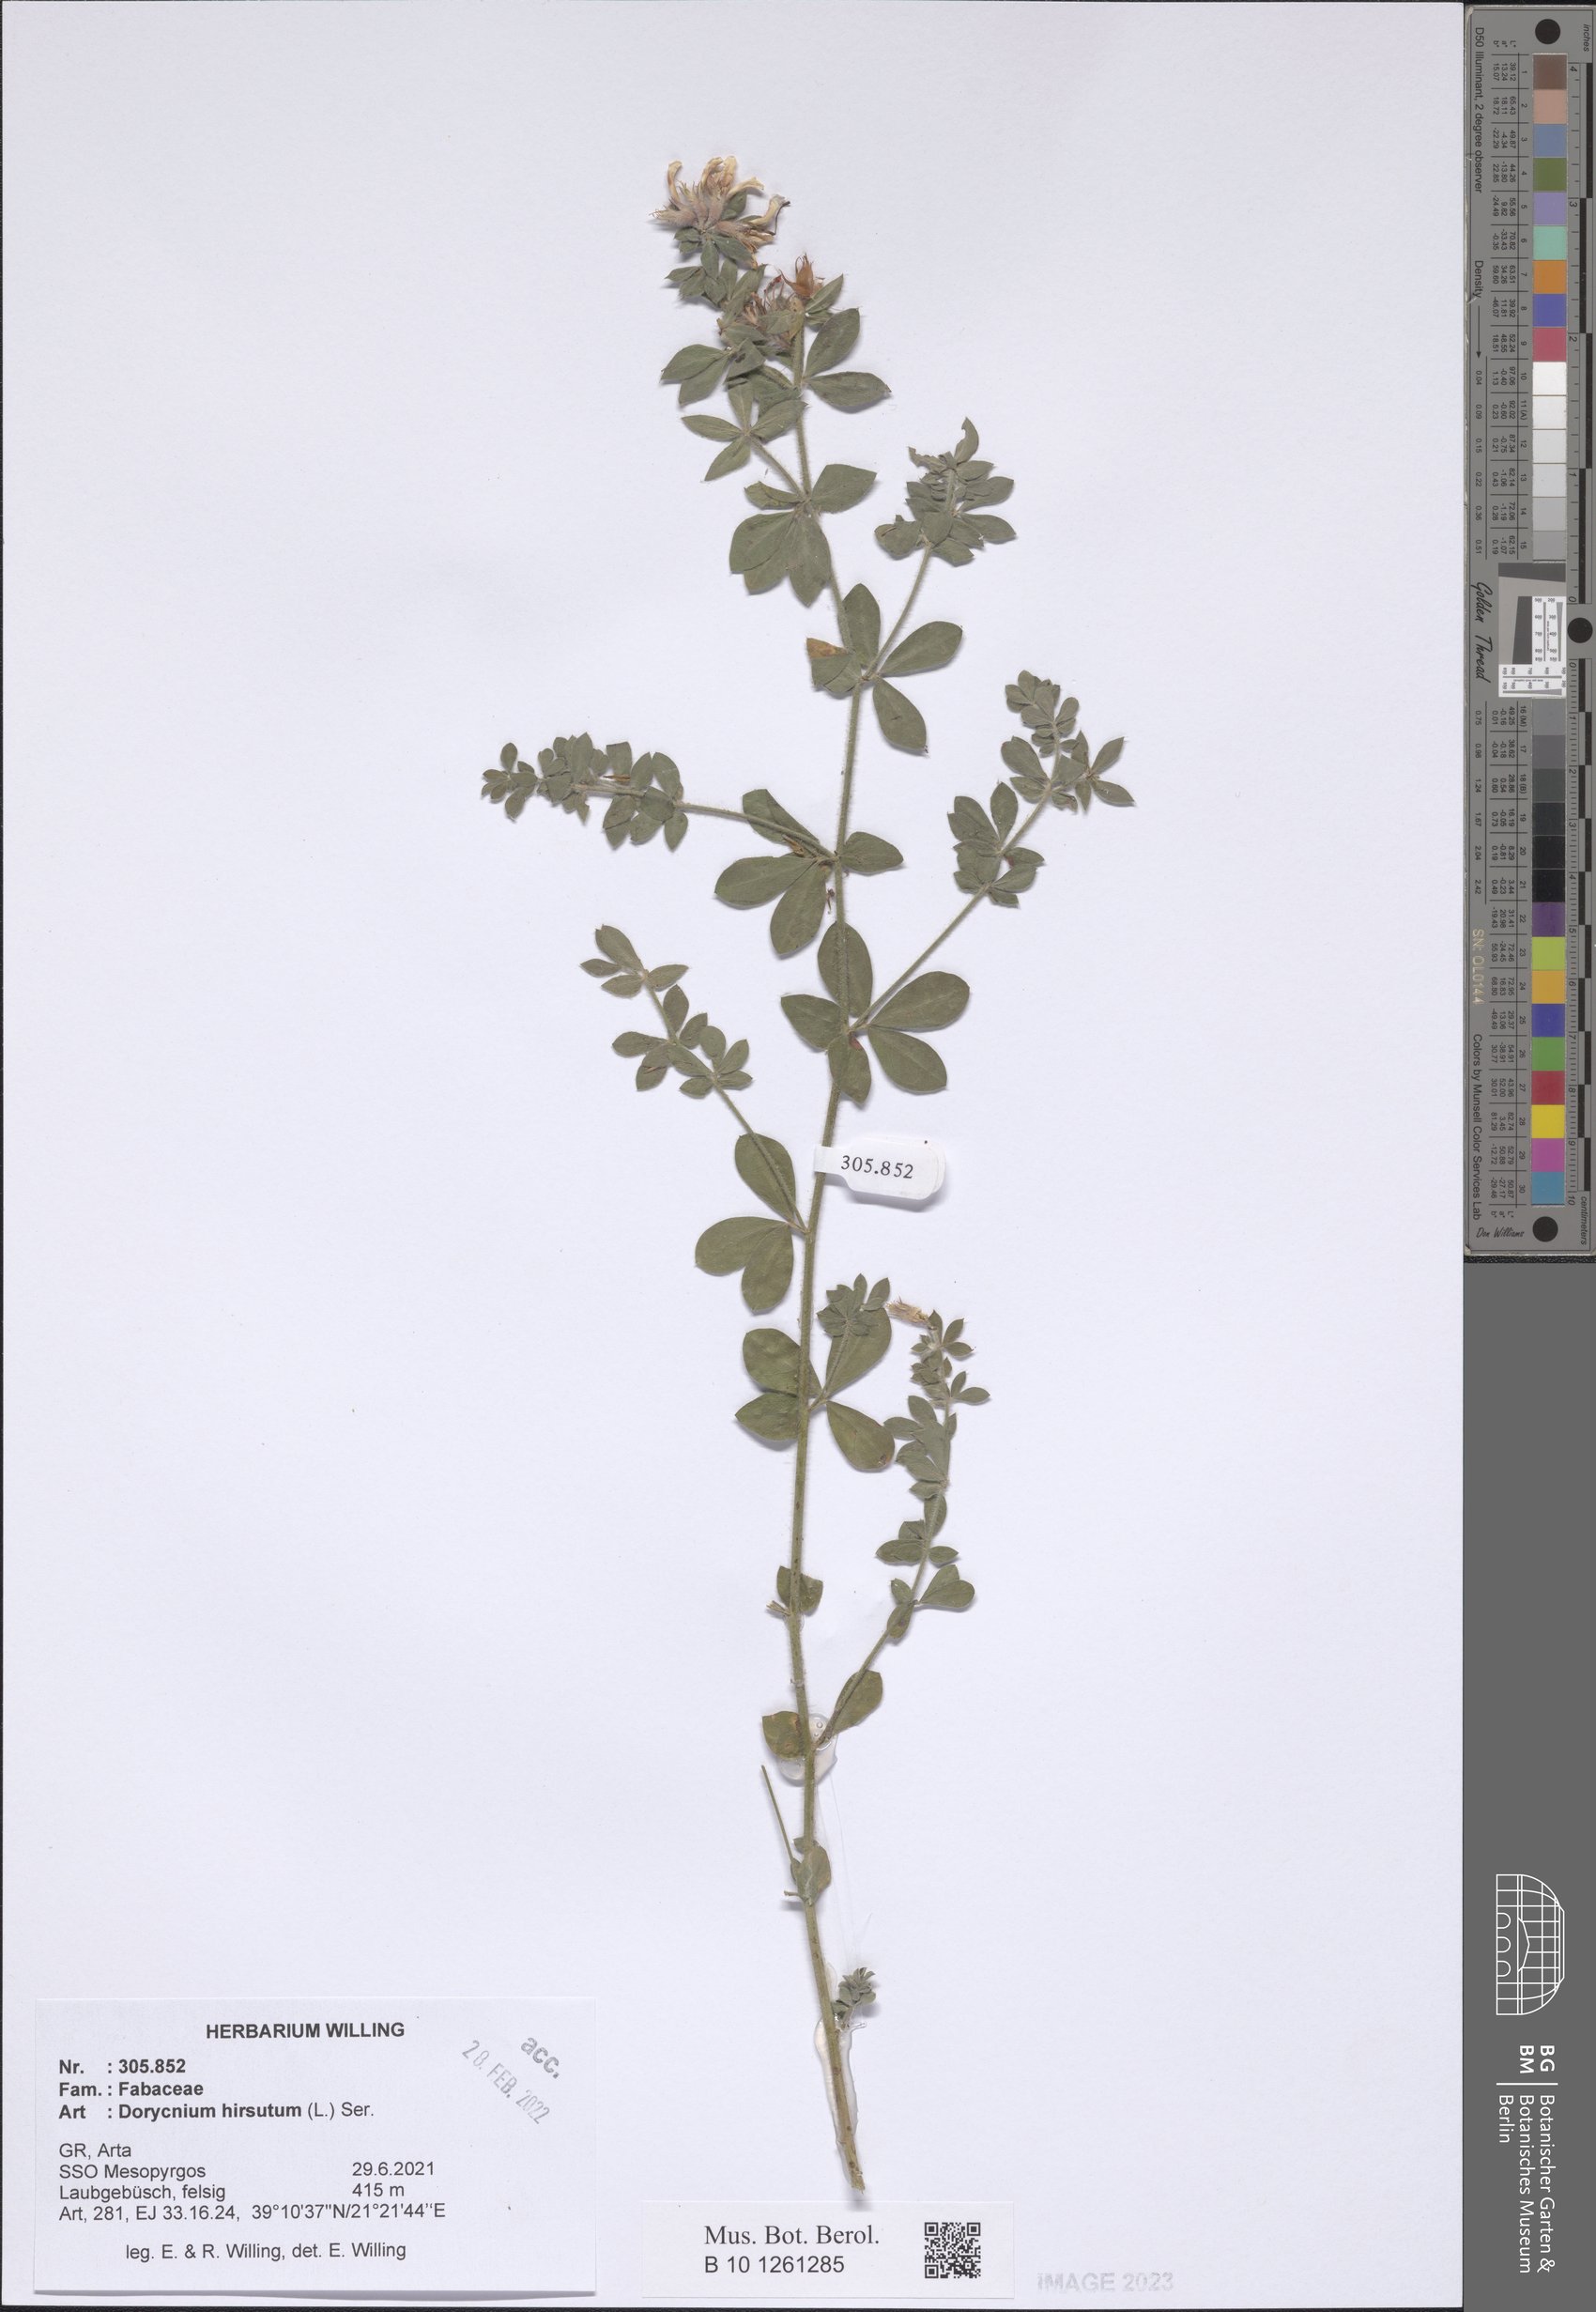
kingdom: Plantae
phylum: Tracheophyta
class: Magnoliopsida
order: Fabales
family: Fabaceae
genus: Lotus
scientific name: Lotus hirsutus
